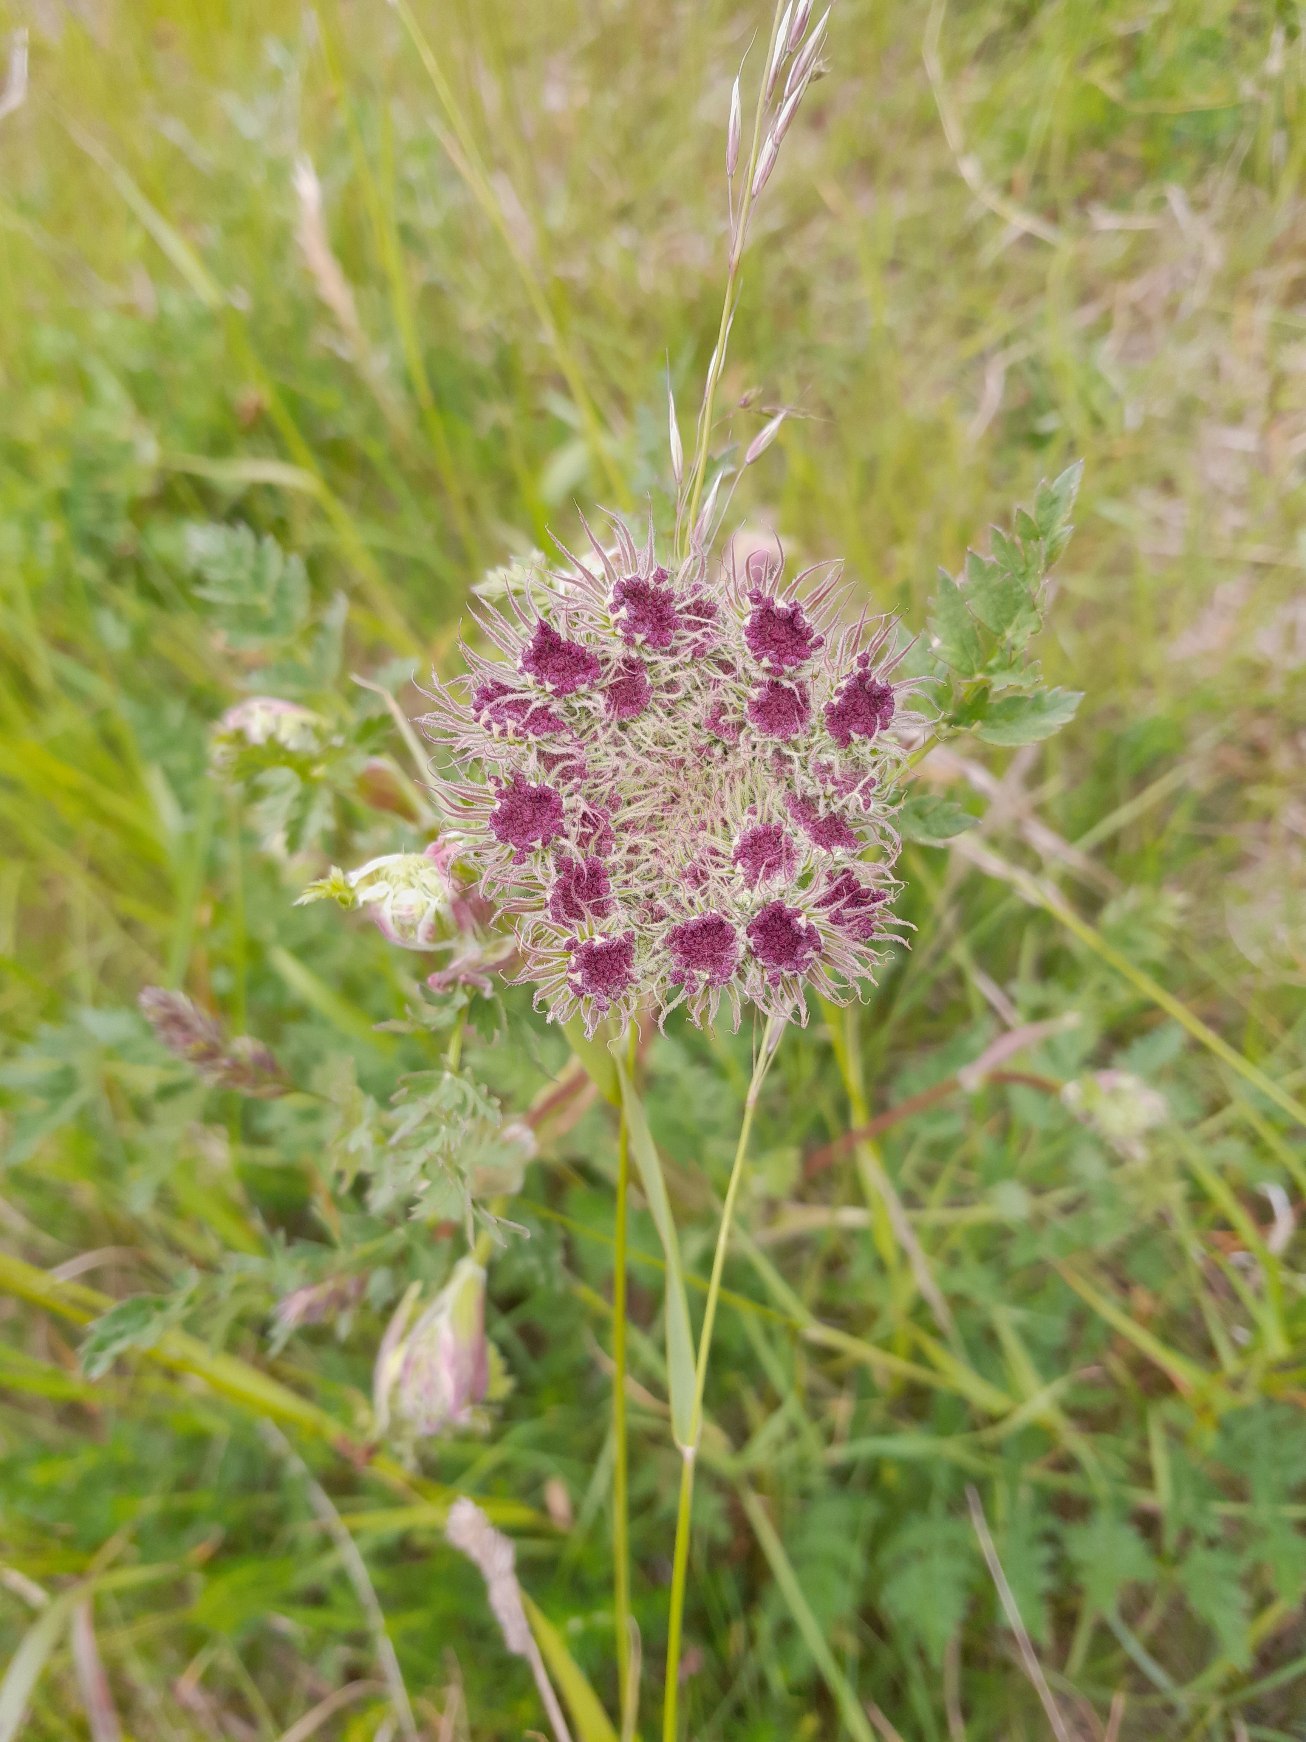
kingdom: Plantae
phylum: Tracheophyta
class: Magnoliopsida
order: Apiales
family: Apiaceae
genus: Seseli
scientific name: Seseli libanotis
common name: Hjorterod
